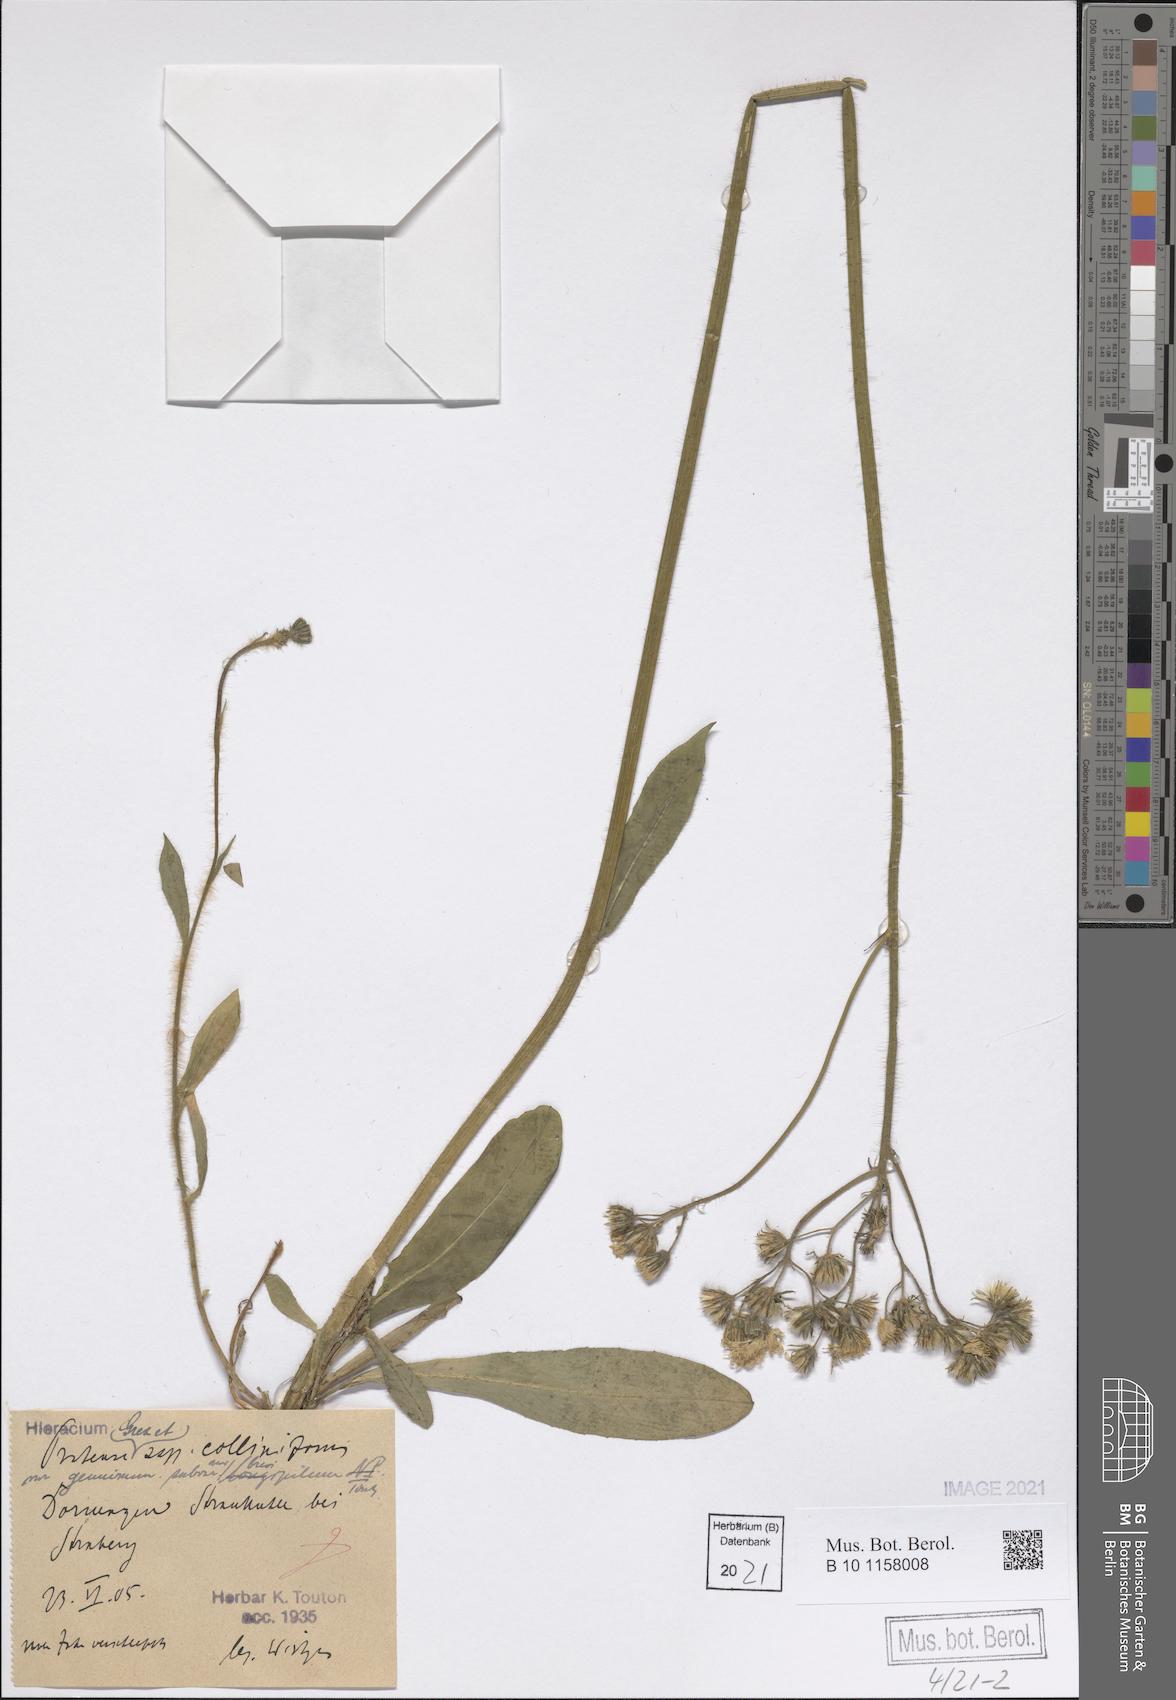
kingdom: Plantae
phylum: Tracheophyta
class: Magnoliopsida
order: Asterales
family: Asteraceae
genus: Pilosella
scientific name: Pilosella caespitosa
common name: Yellow fox-and-cubs
